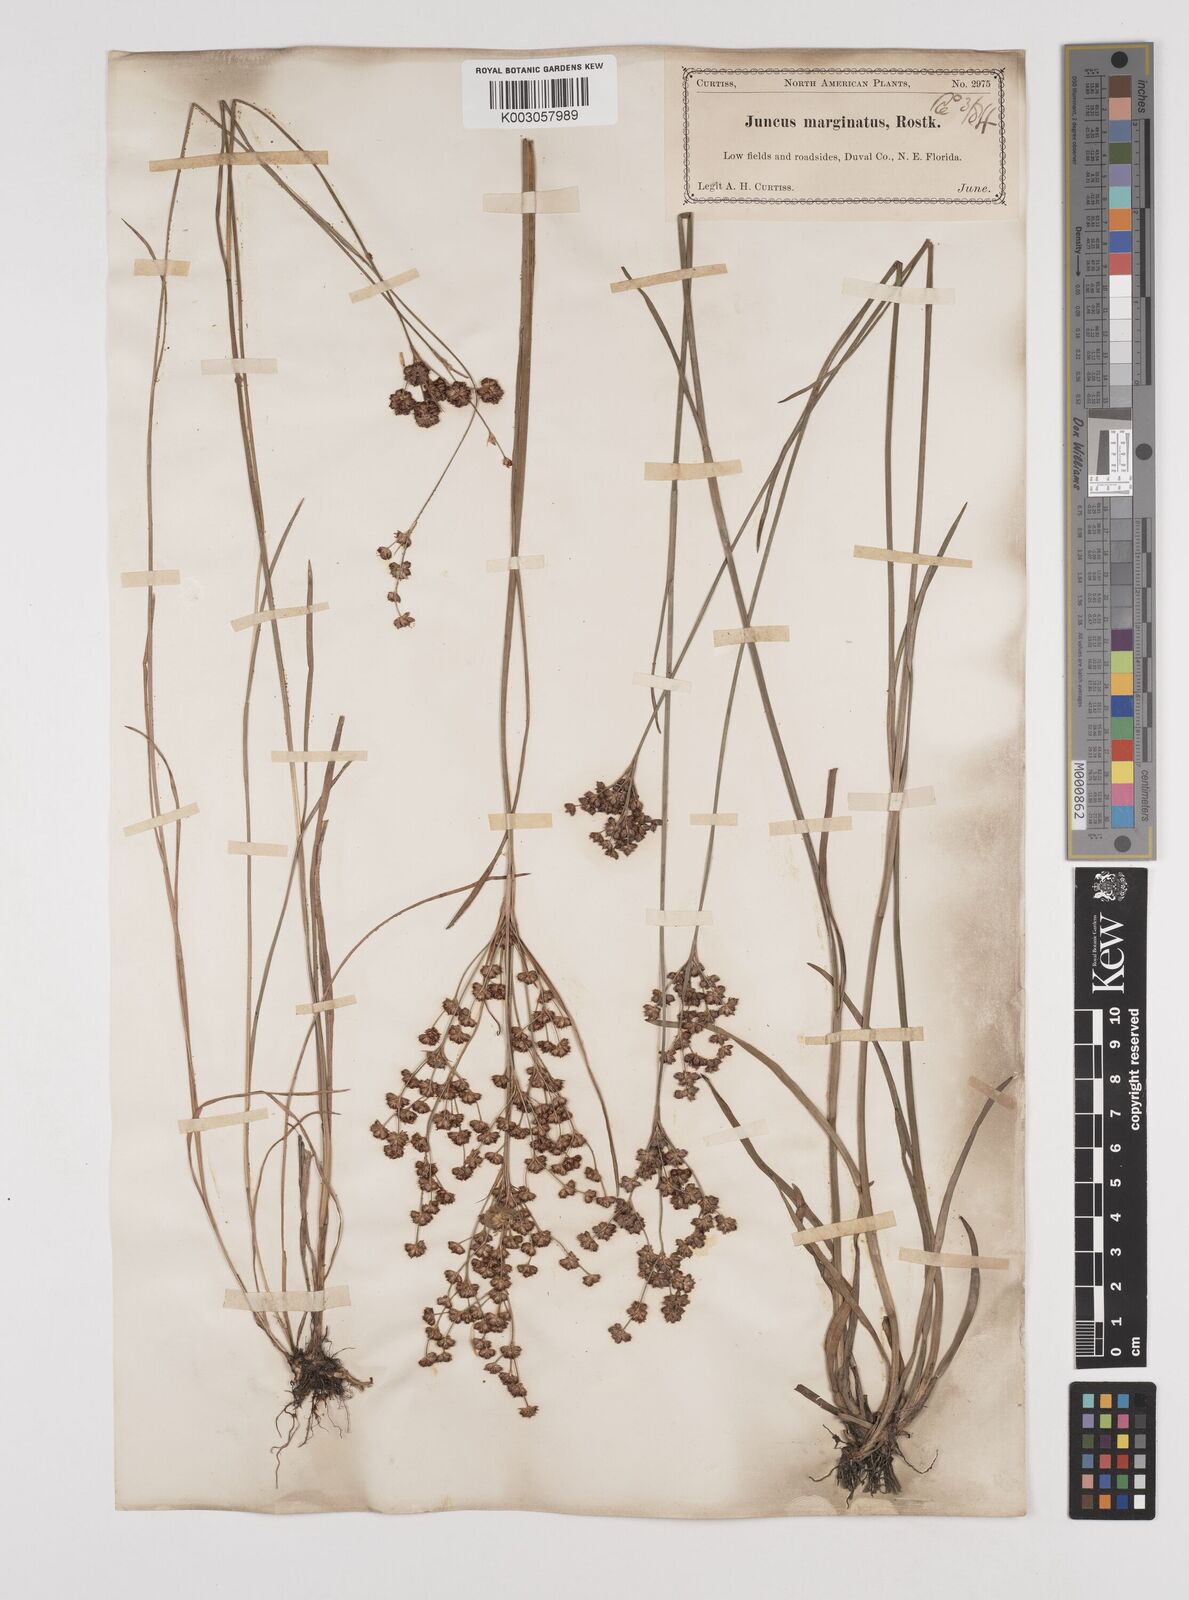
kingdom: Plantae
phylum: Tracheophyta
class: Liliopsida
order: Poales
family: Juncaceae
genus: Juncus
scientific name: Juncus marginatus
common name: Grass-leaf rush
